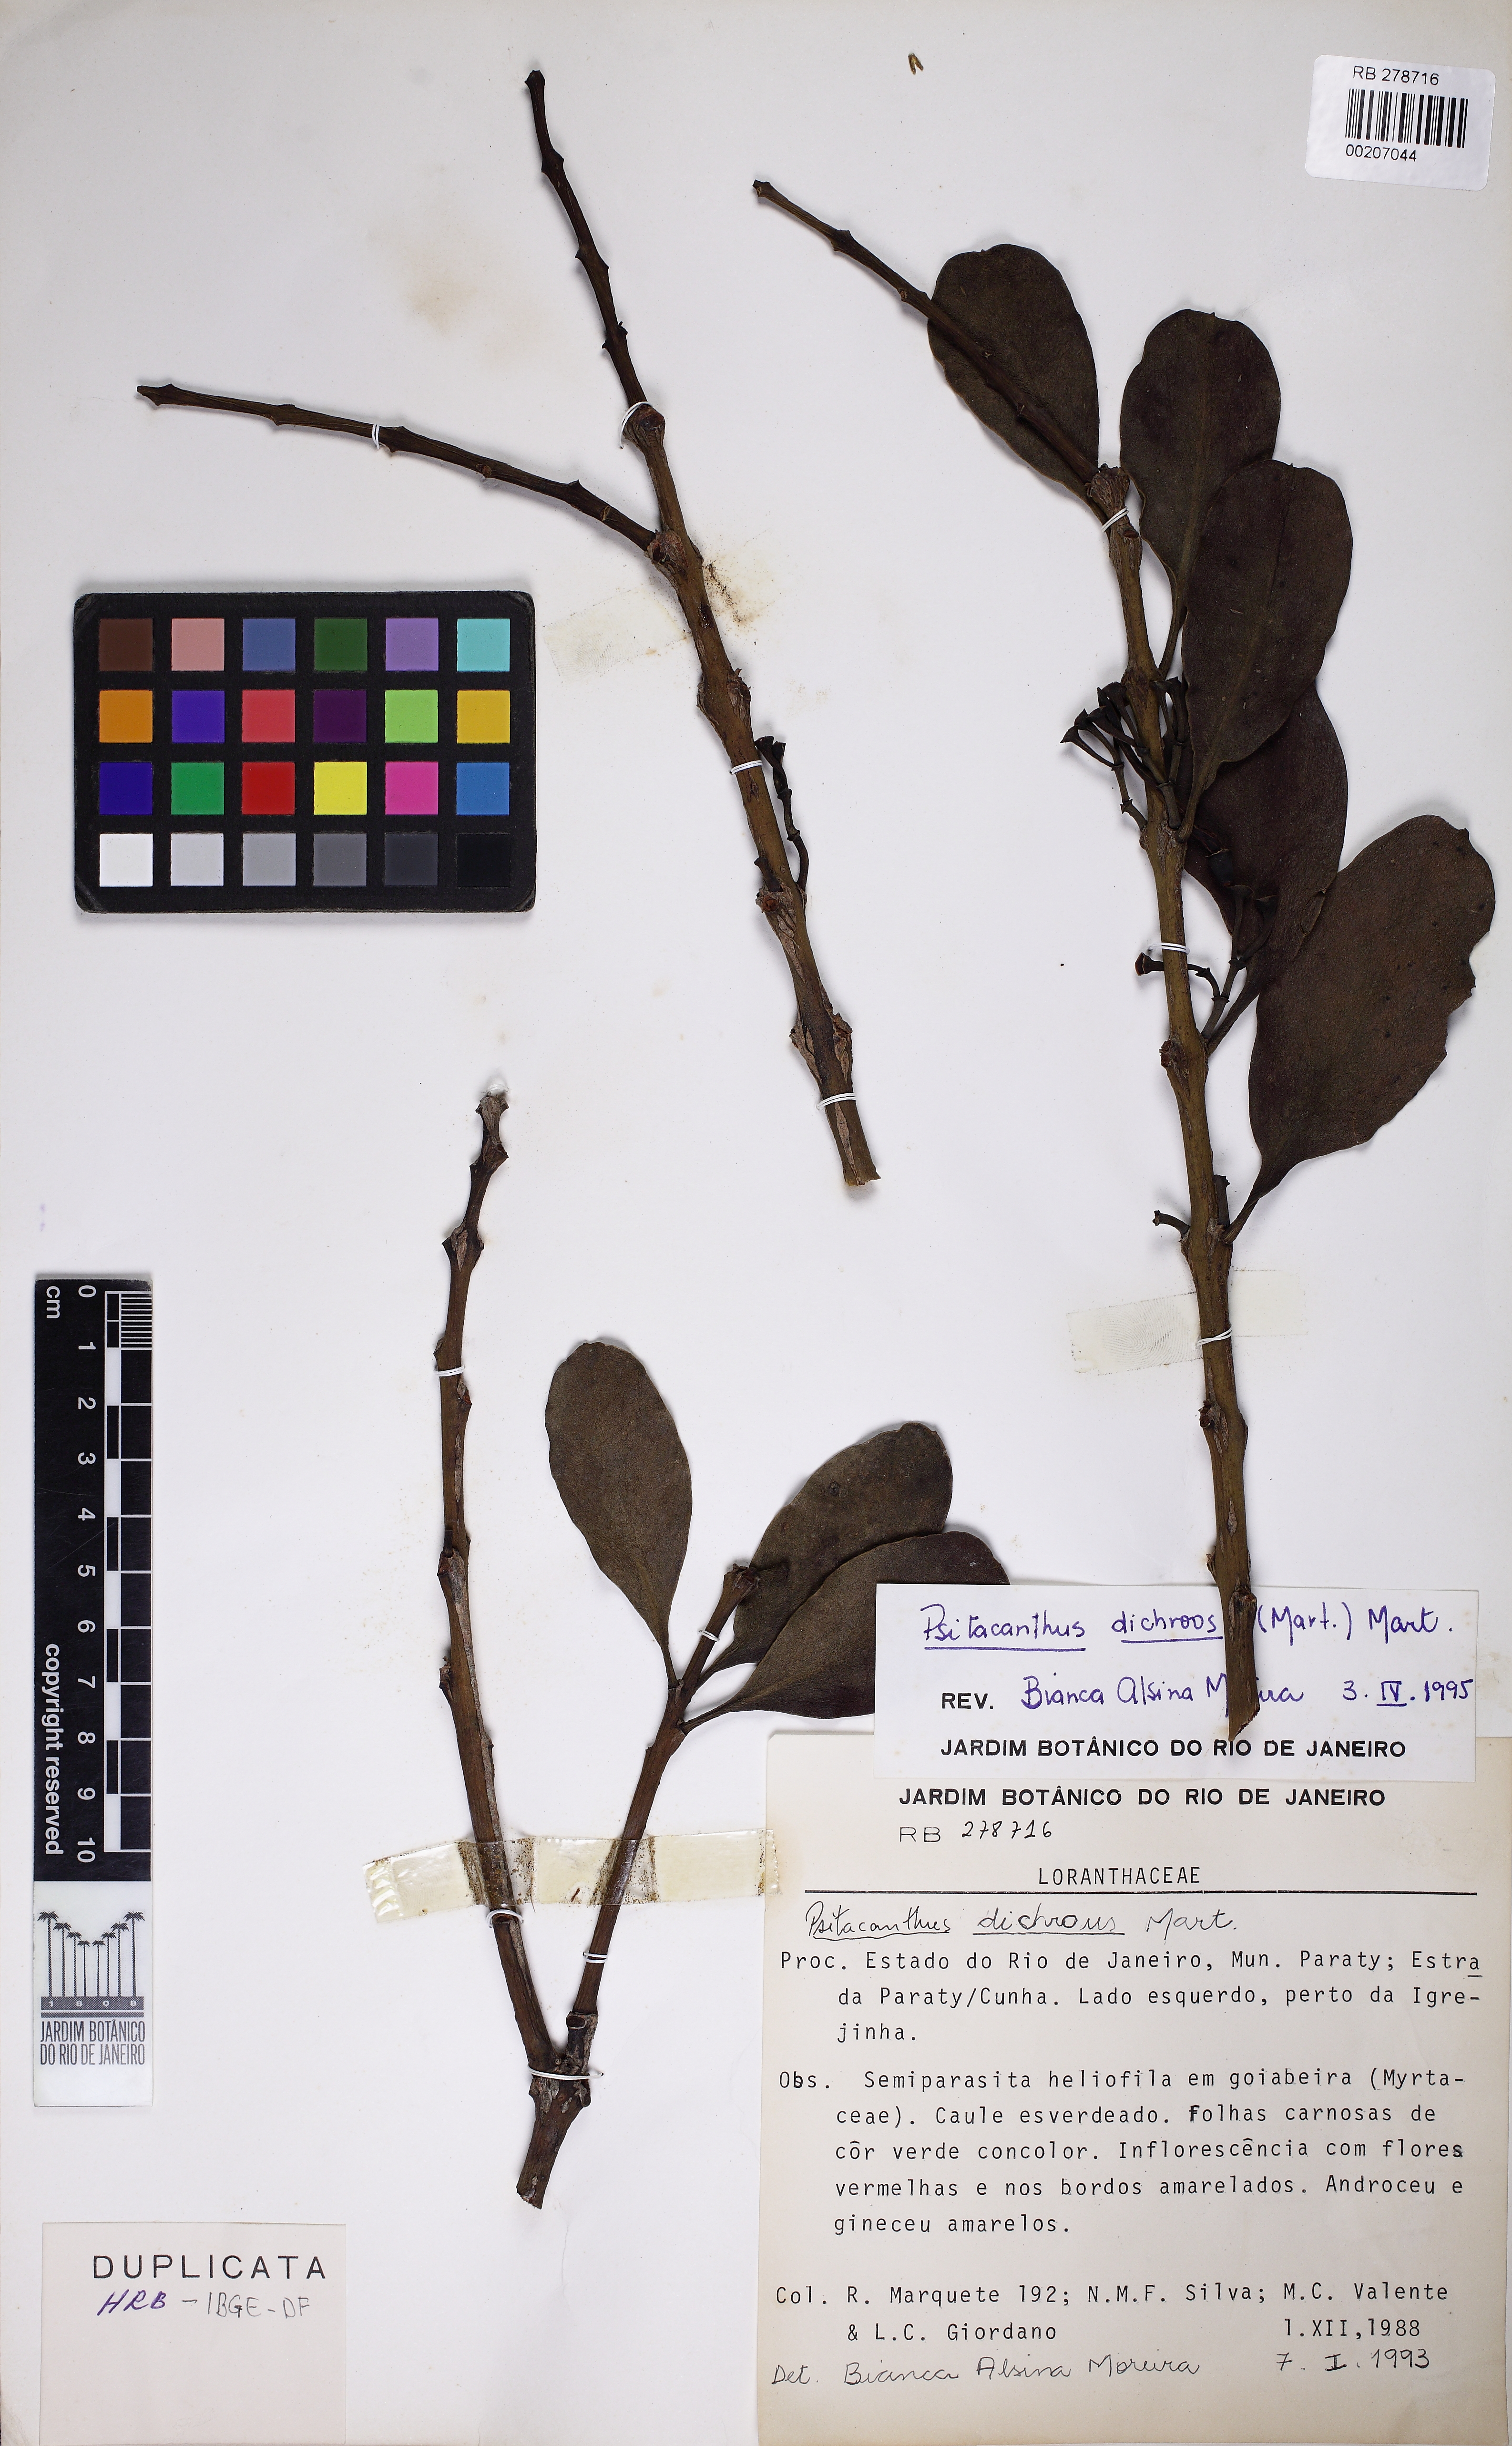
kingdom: Plantae
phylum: Tracheophyta
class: Magnoliopsida
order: Santalales
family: Loranthaceae
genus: Psittacanthus
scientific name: Psittacanthus dichroos
